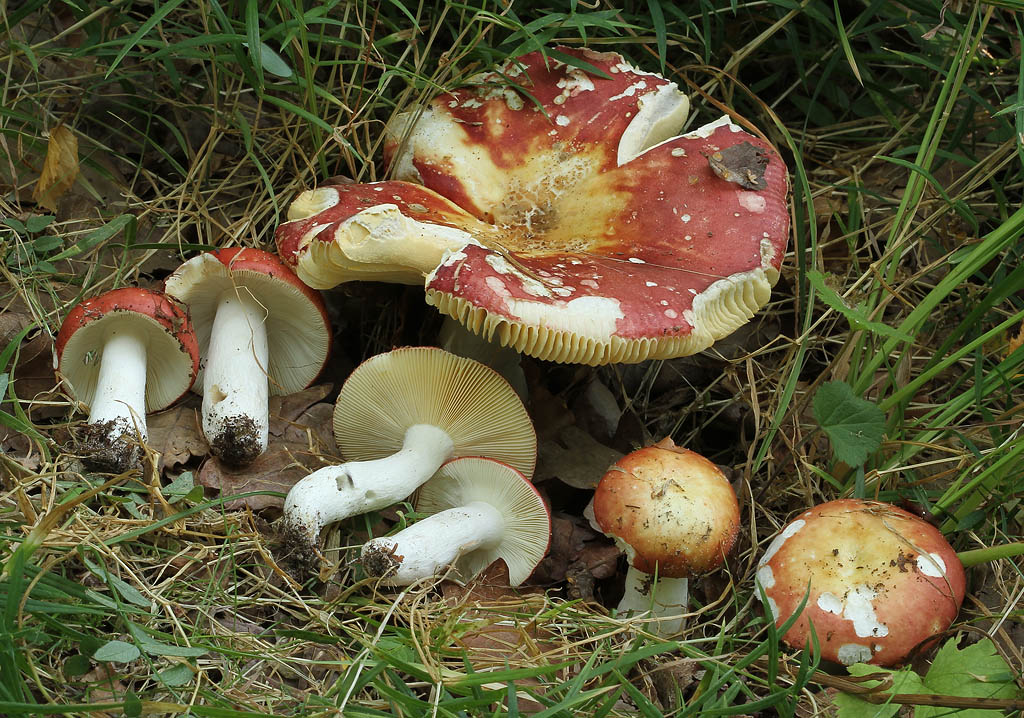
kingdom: Fungi
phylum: Basidiomycota
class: Agaricomycetes
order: Russulales
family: Russulaceae
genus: Russula
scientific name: Russula velenovskyi
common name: orangerød skørhat
